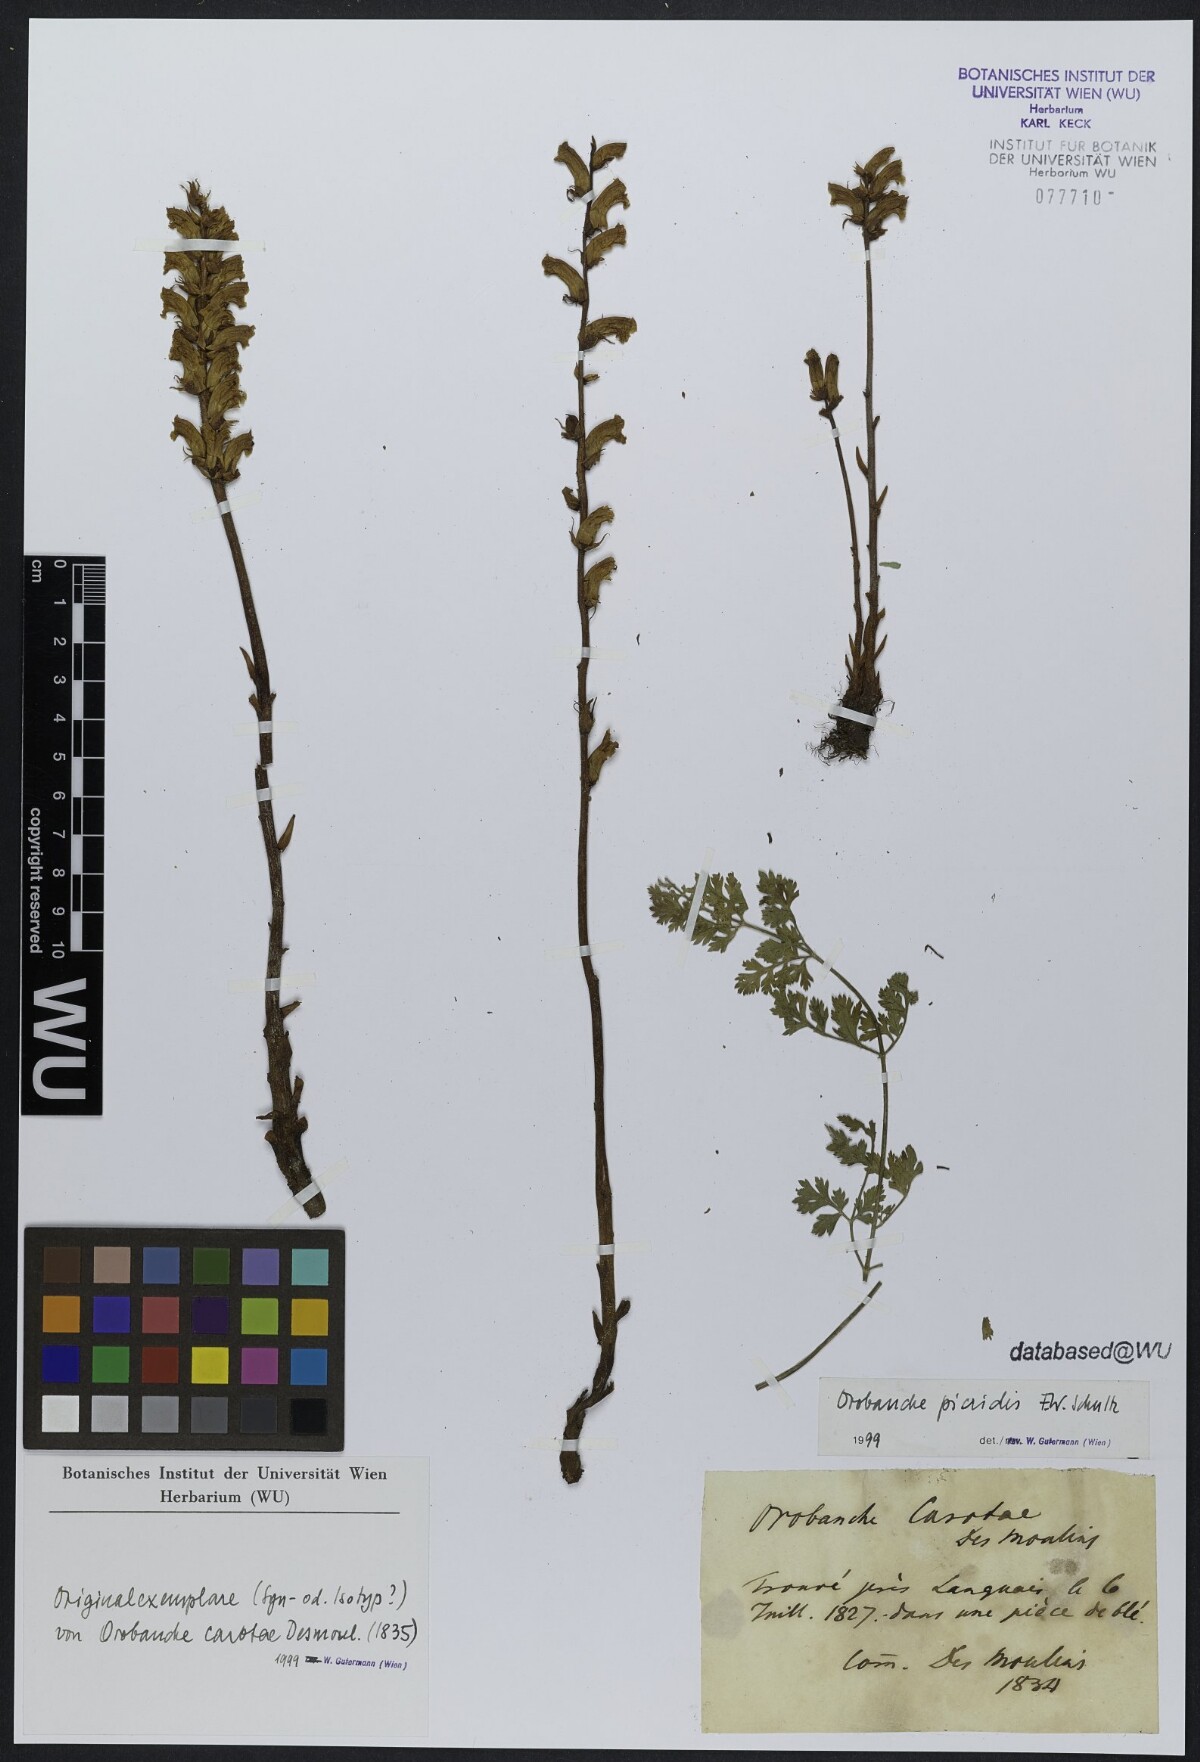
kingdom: Plantae
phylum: Tracheophyta
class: Magnoliopsida
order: Lamiales
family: Orobanchaceae
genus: Orobanche
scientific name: Orobanche picridis
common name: Oxtongue broomrape
